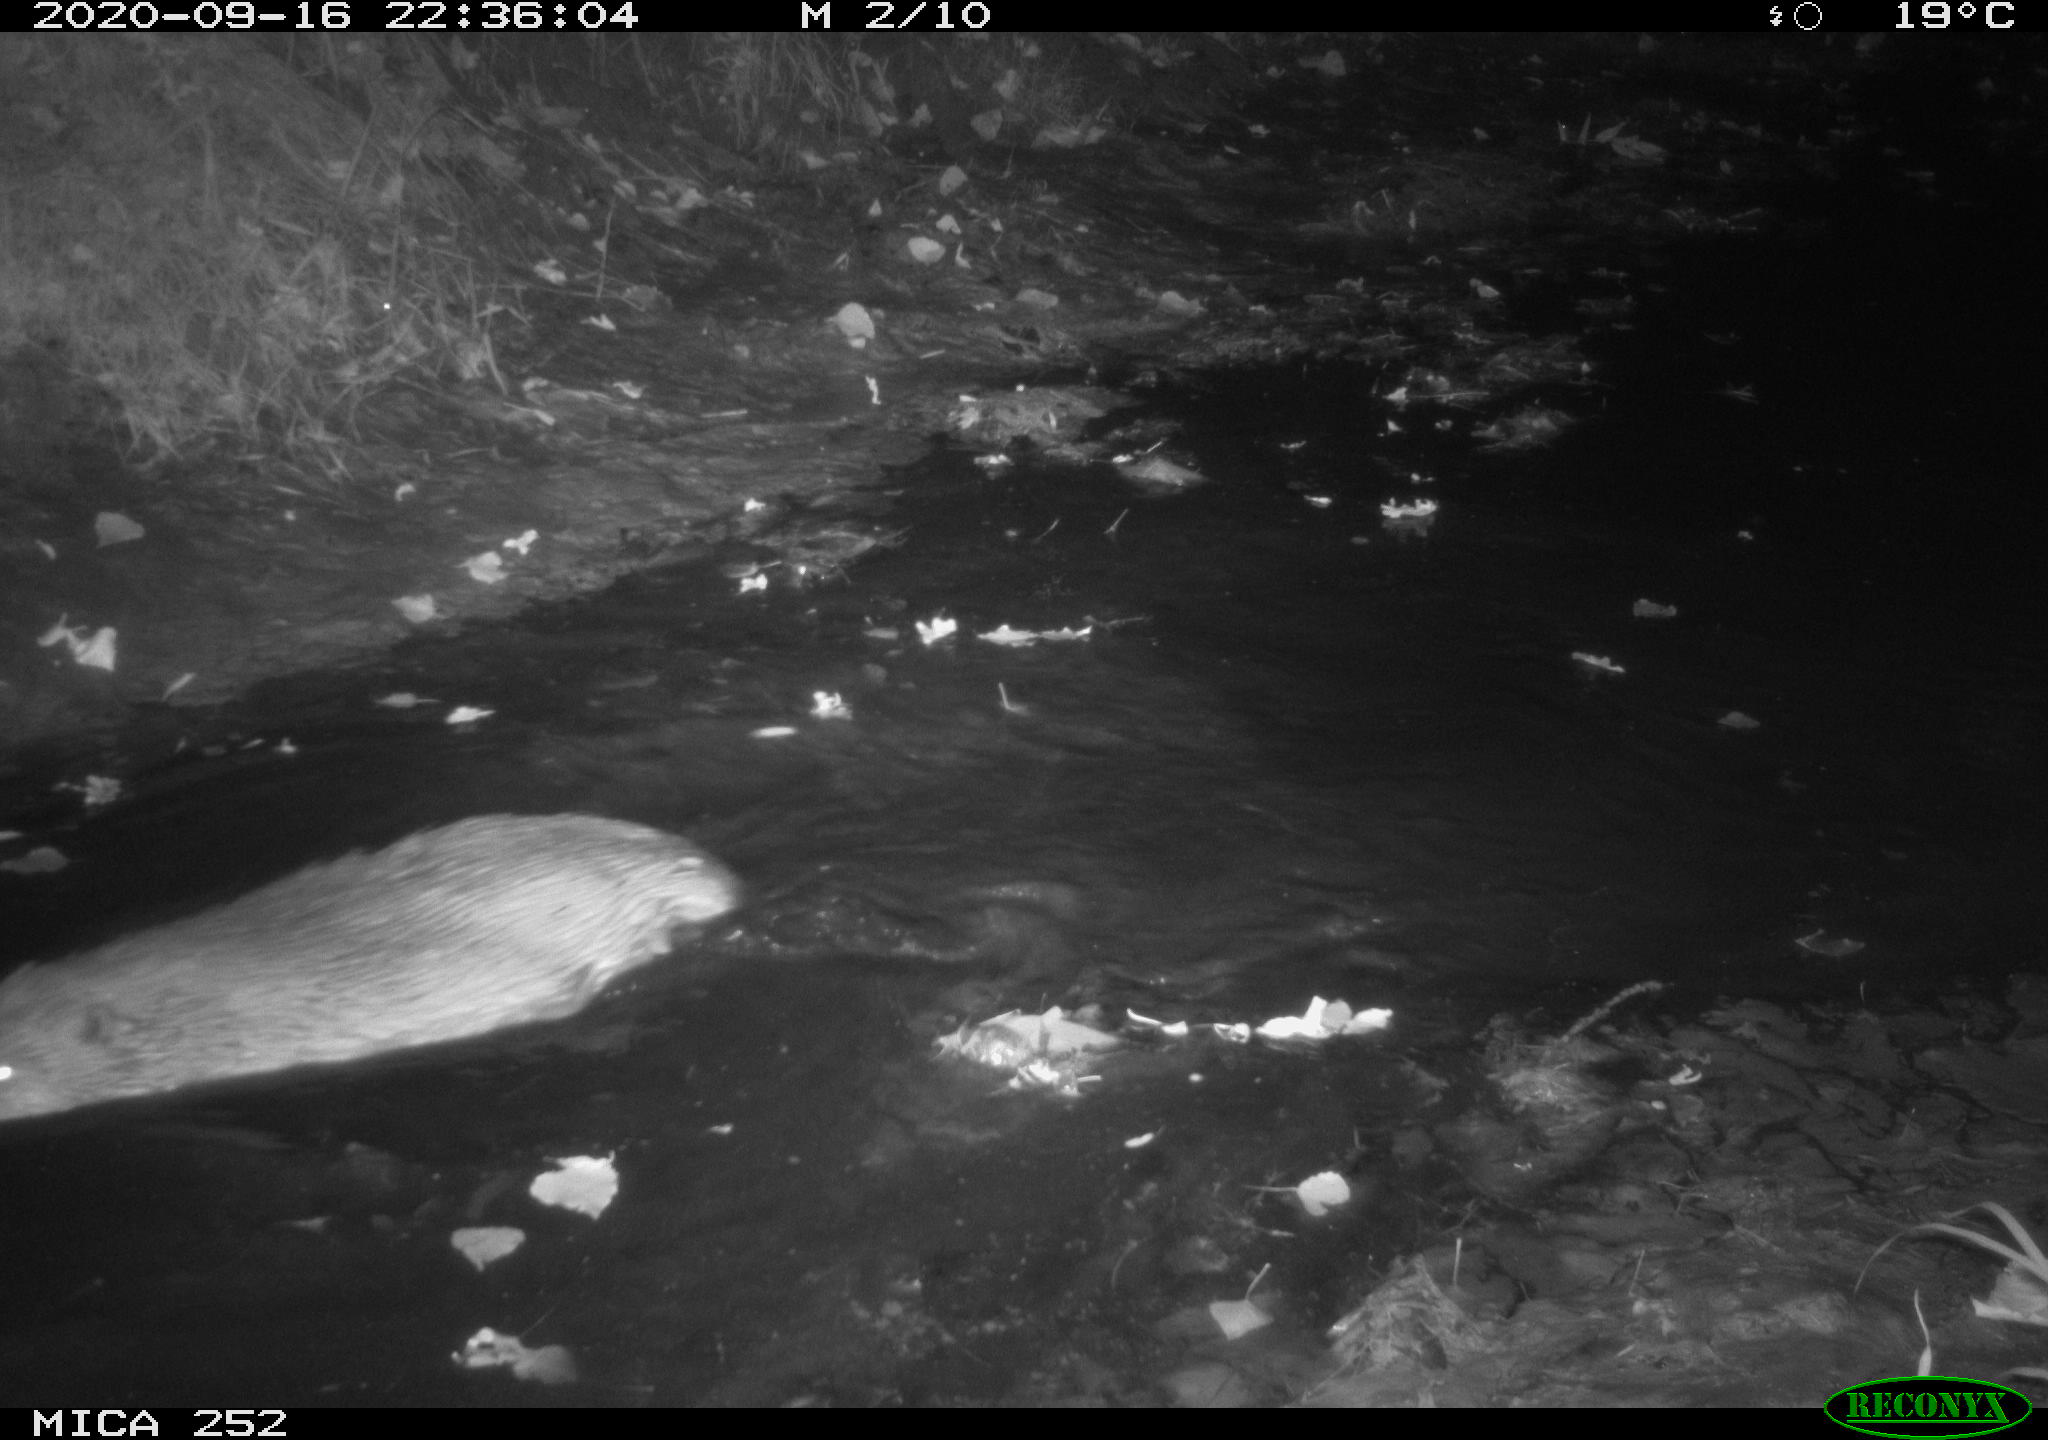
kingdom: Animalia
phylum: Chordata
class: Mammalia
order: Rodentia
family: Castoridae
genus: Castor
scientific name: Castor fiber
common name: Eurasian beaver
